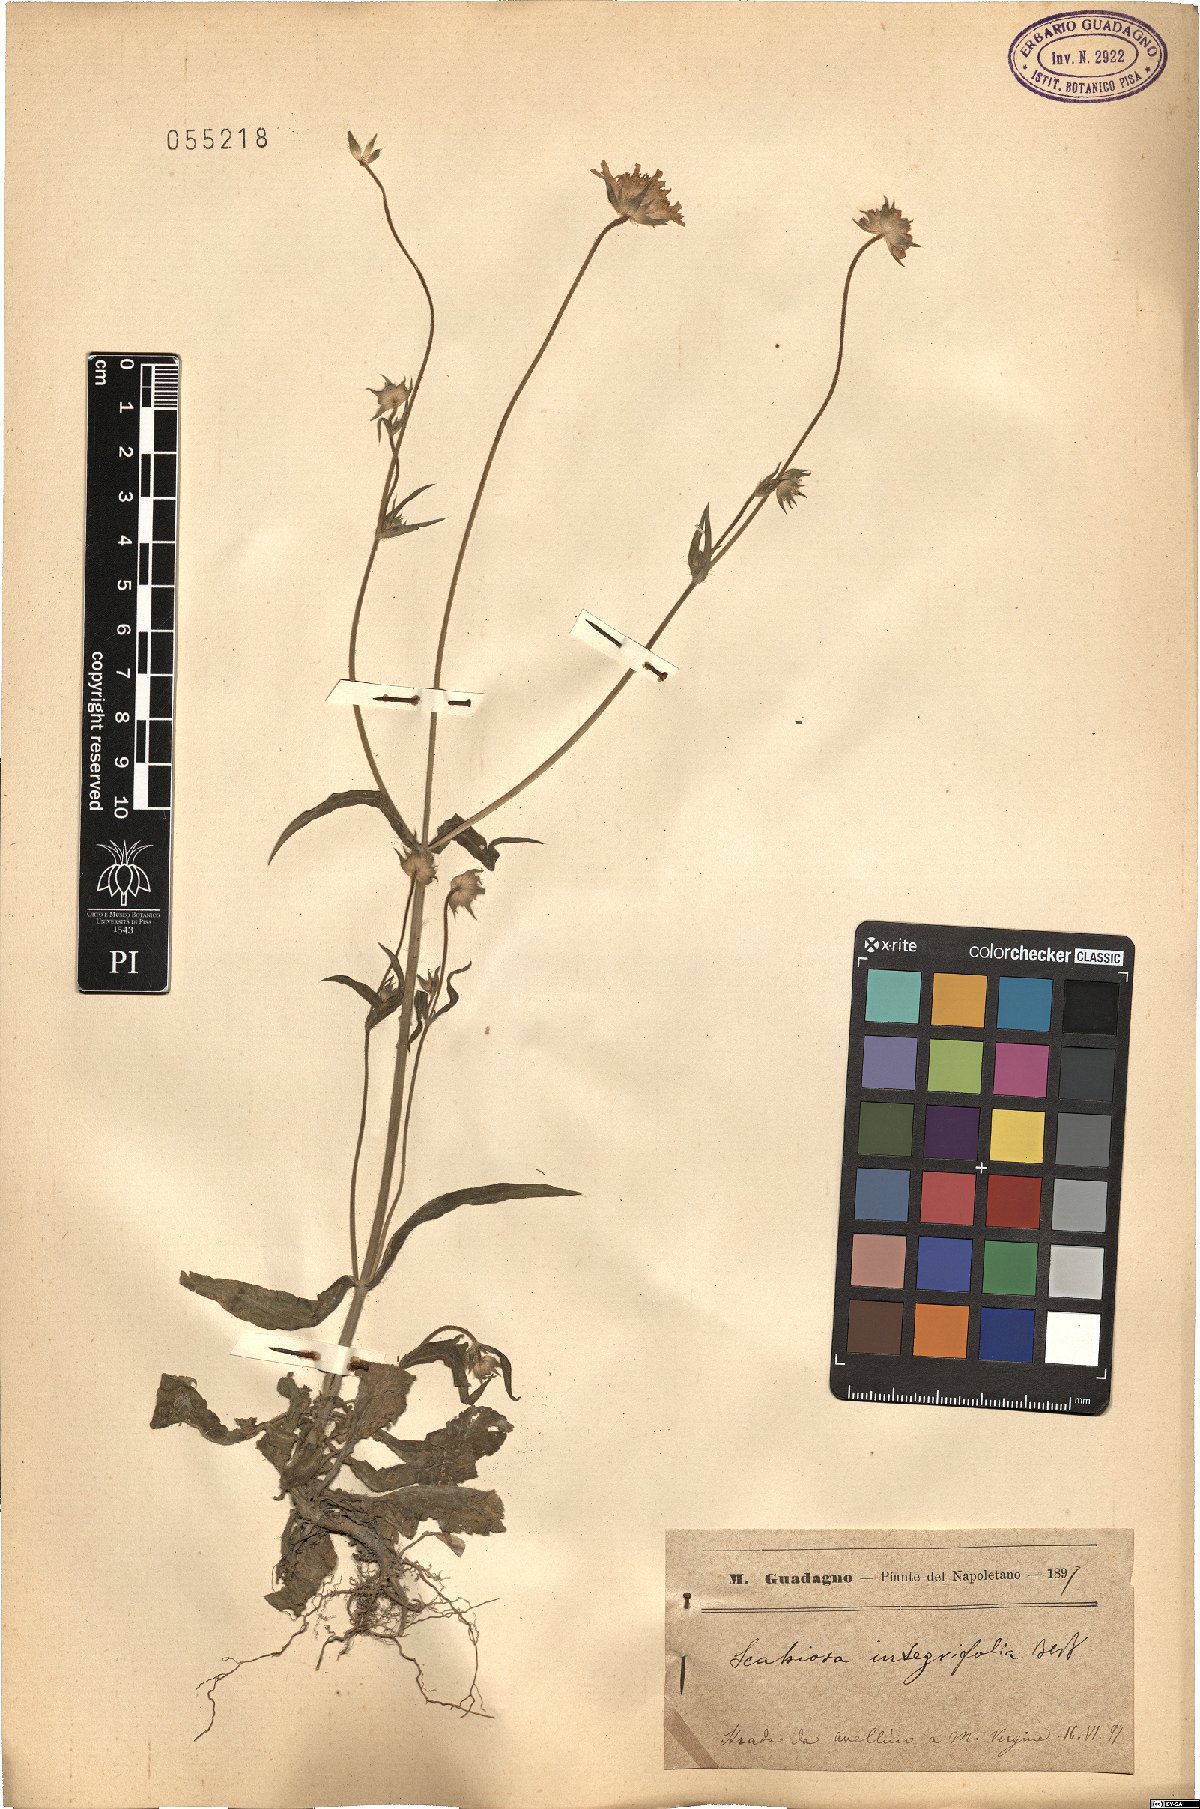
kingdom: Plantae
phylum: Tracheophyta
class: Magnoliopsida
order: Dipsacales
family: Caprifoliaceae
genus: Knautia
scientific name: Knautia integrifolia
